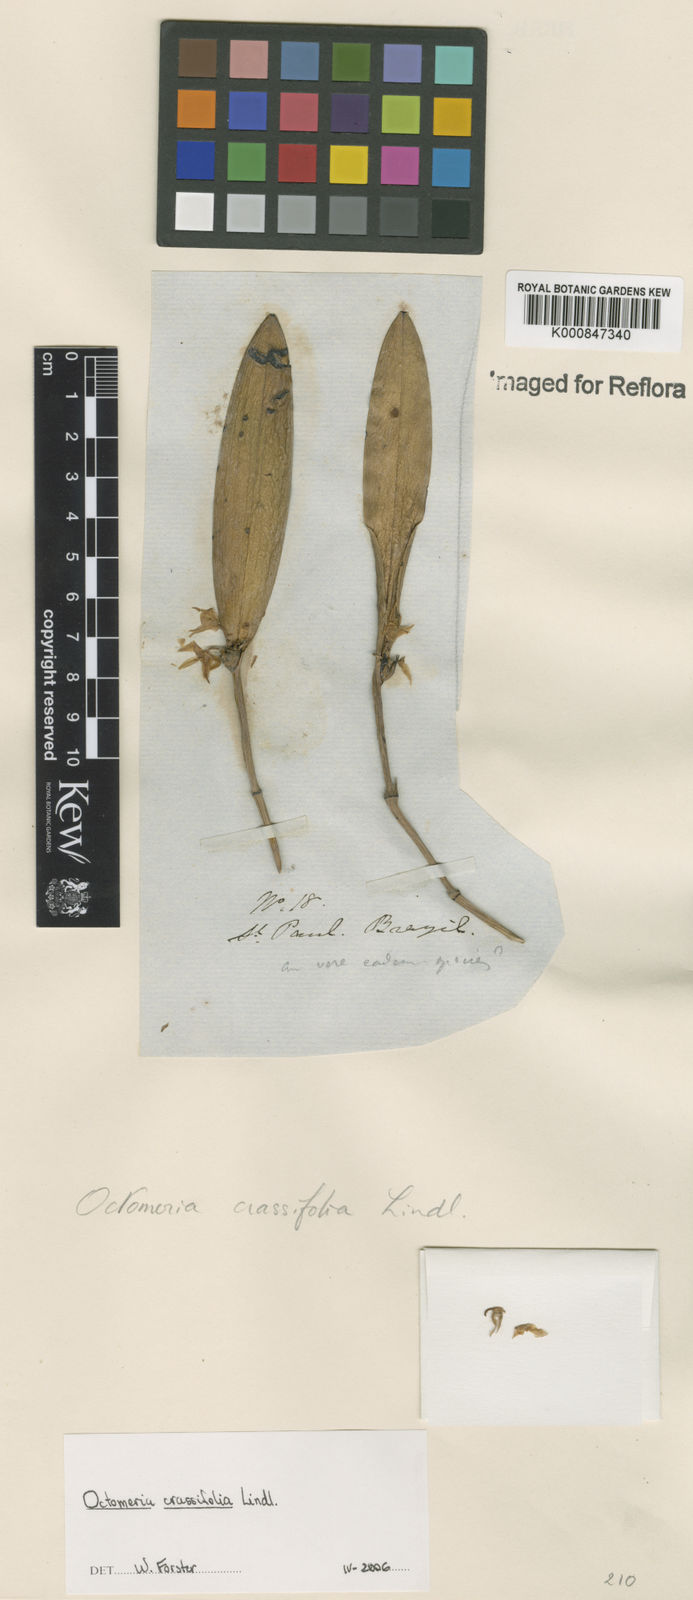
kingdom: Plantae
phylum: Tracheophyta
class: Liliopsida
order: Asparagales
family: Orchidaceae
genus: Octomeria
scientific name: Octomeria crassifolia
